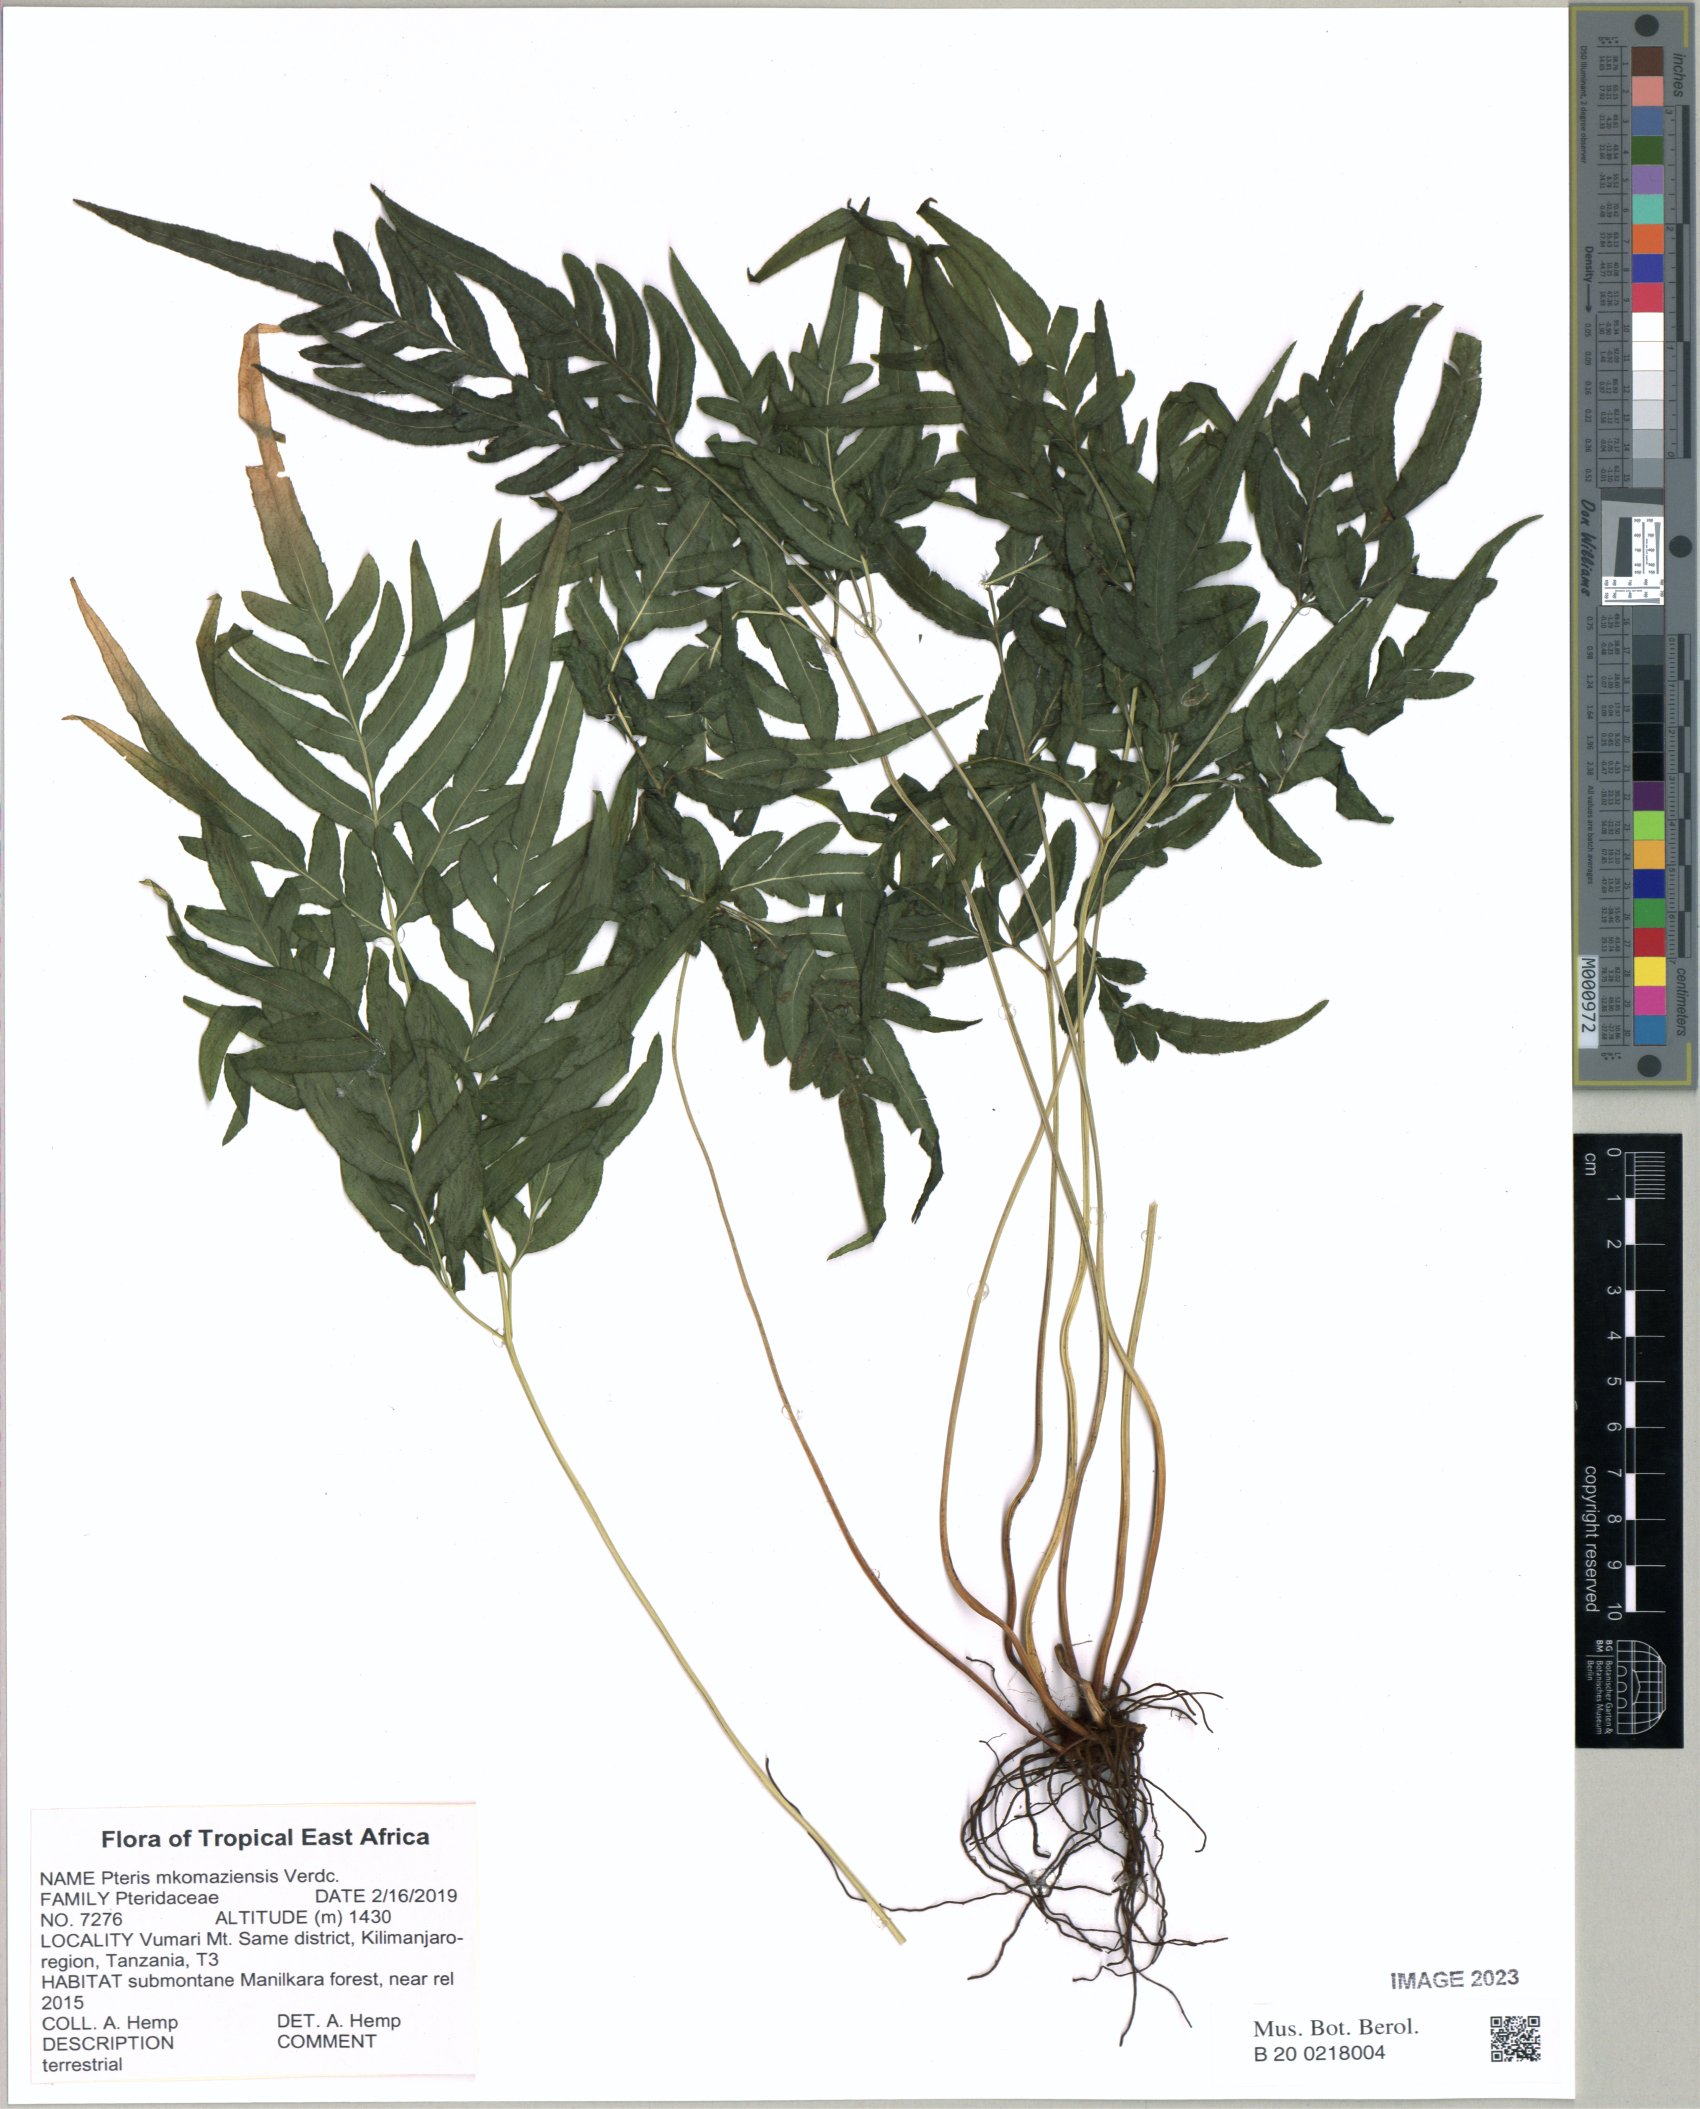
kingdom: Plantae
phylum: Tracheophyta
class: Polypodiopsida
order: Polypodiales
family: Pteridaceae
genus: Pteris
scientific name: Pteris mkomaziensis
